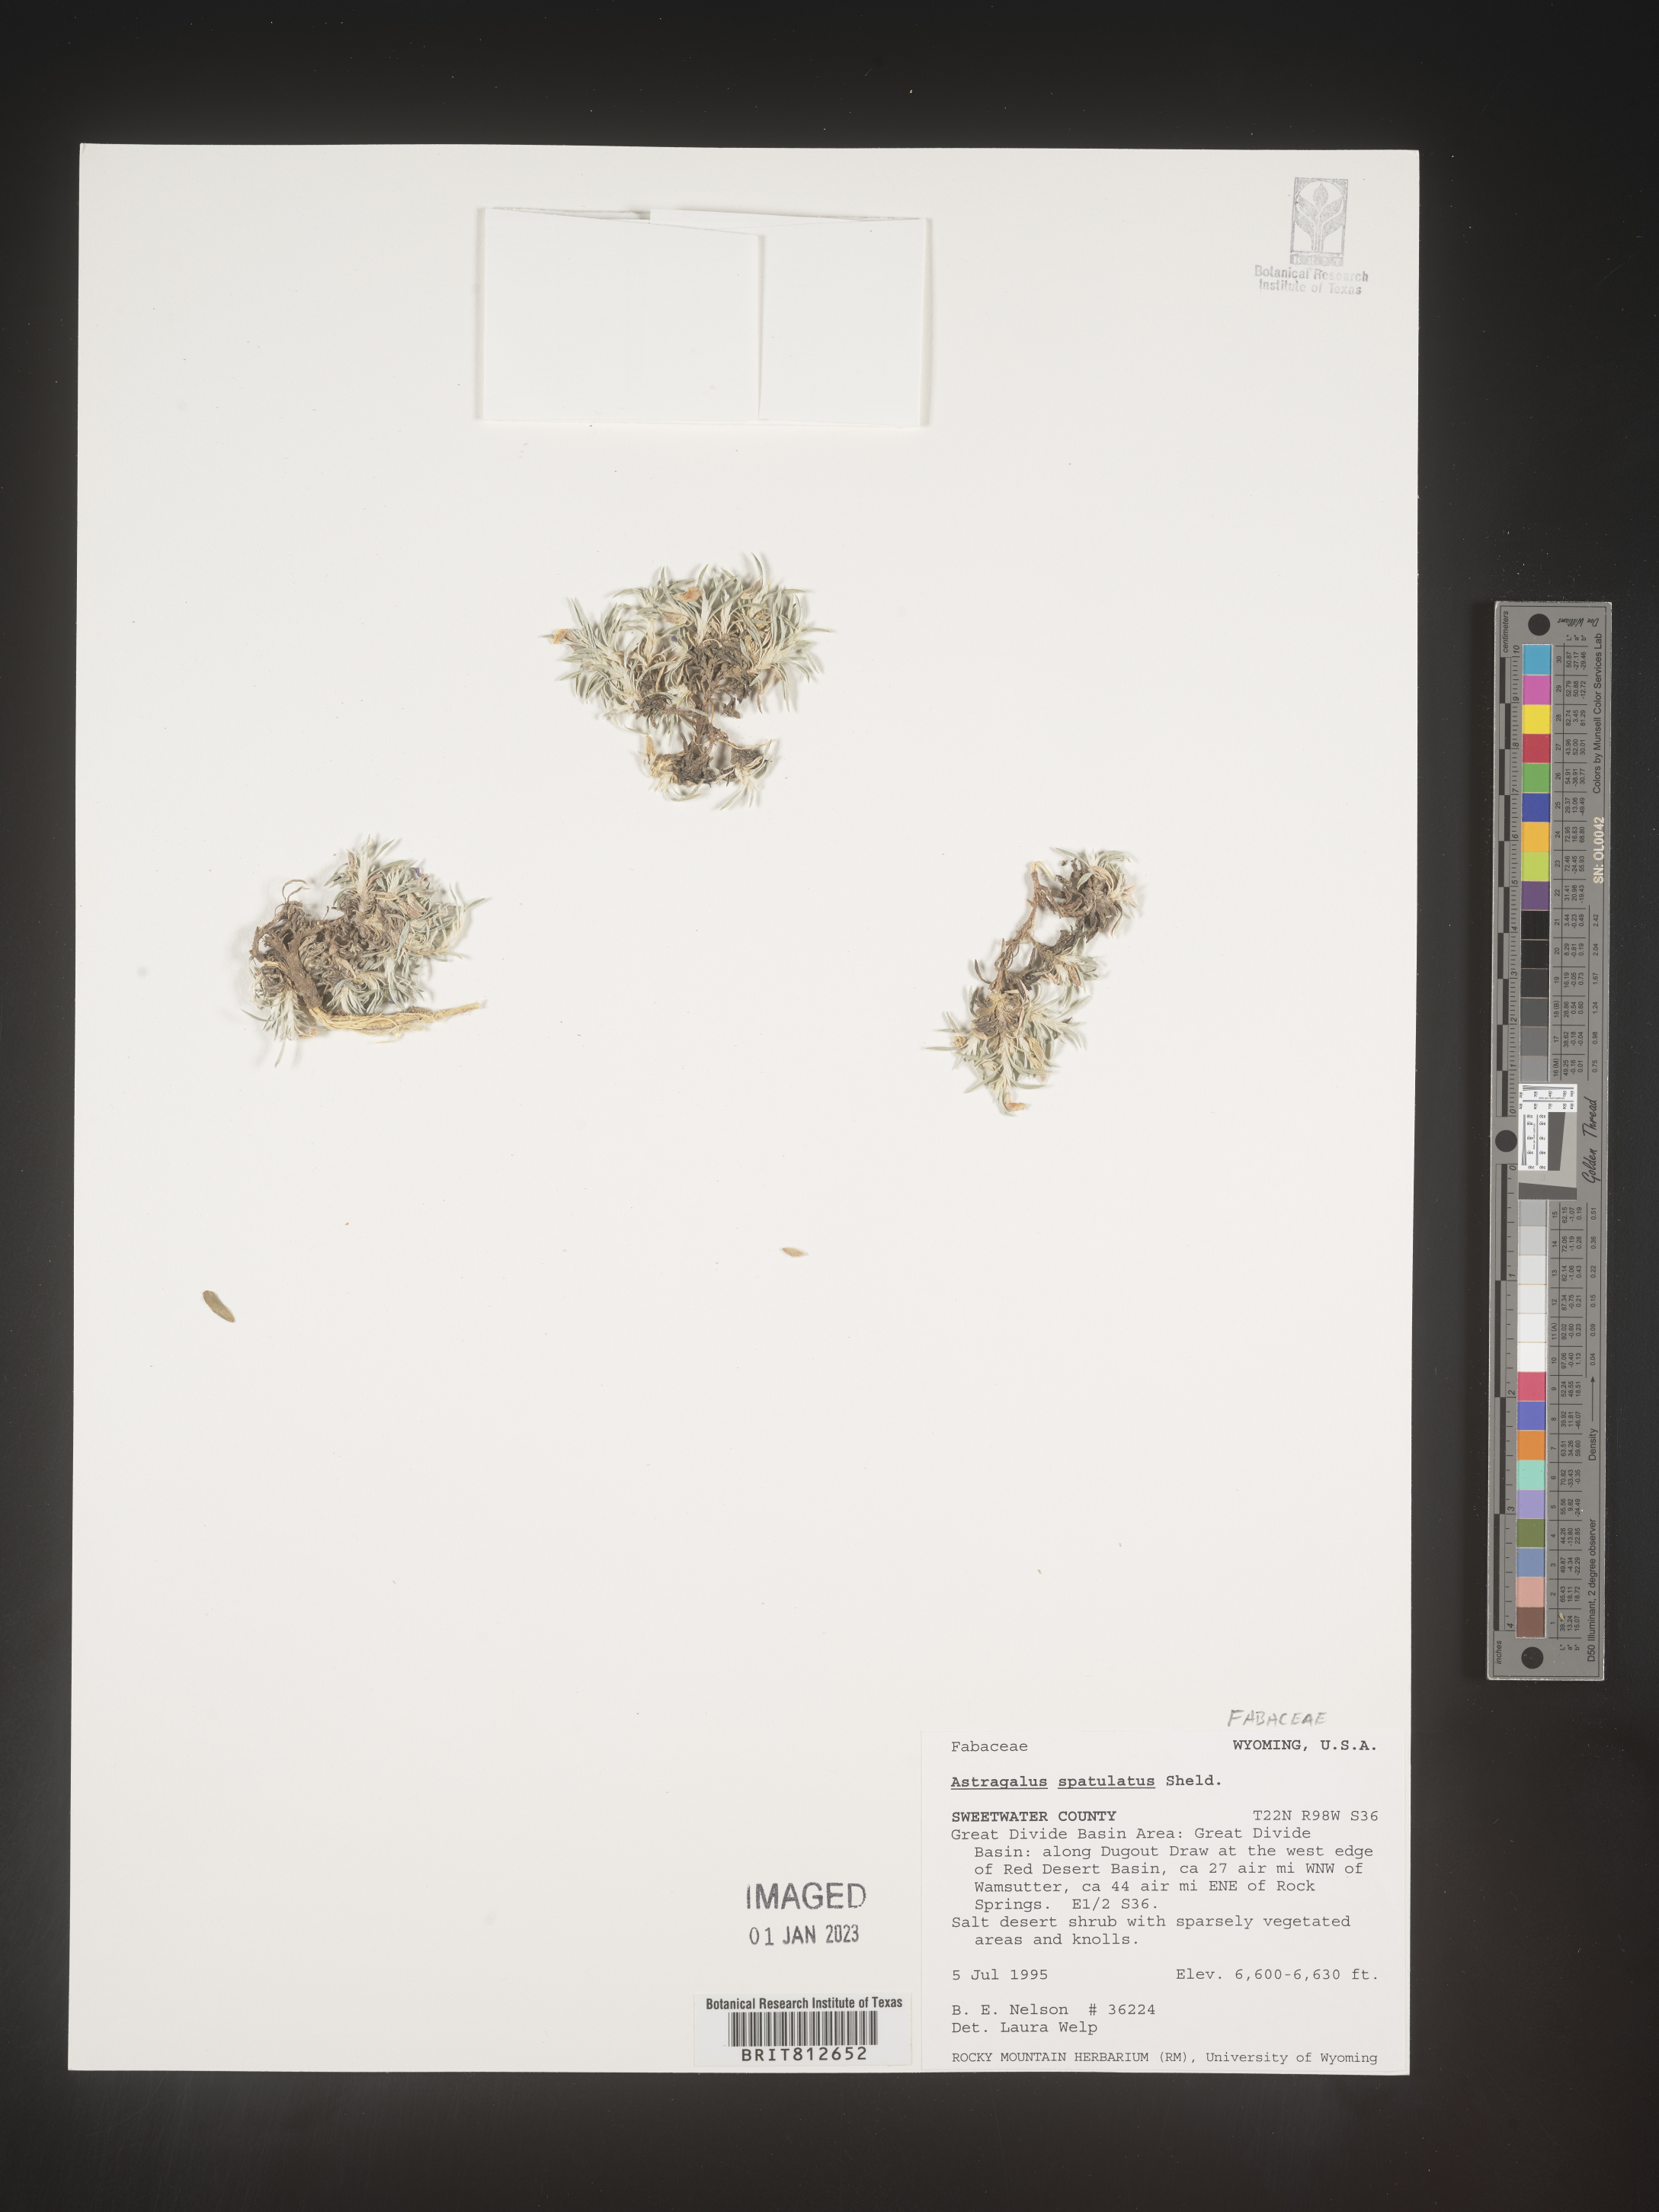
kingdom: Plantae
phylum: Tracheophyta
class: Magnoliopsida
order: Fabales
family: Fabaceae
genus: Astragalus
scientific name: Astragalus
